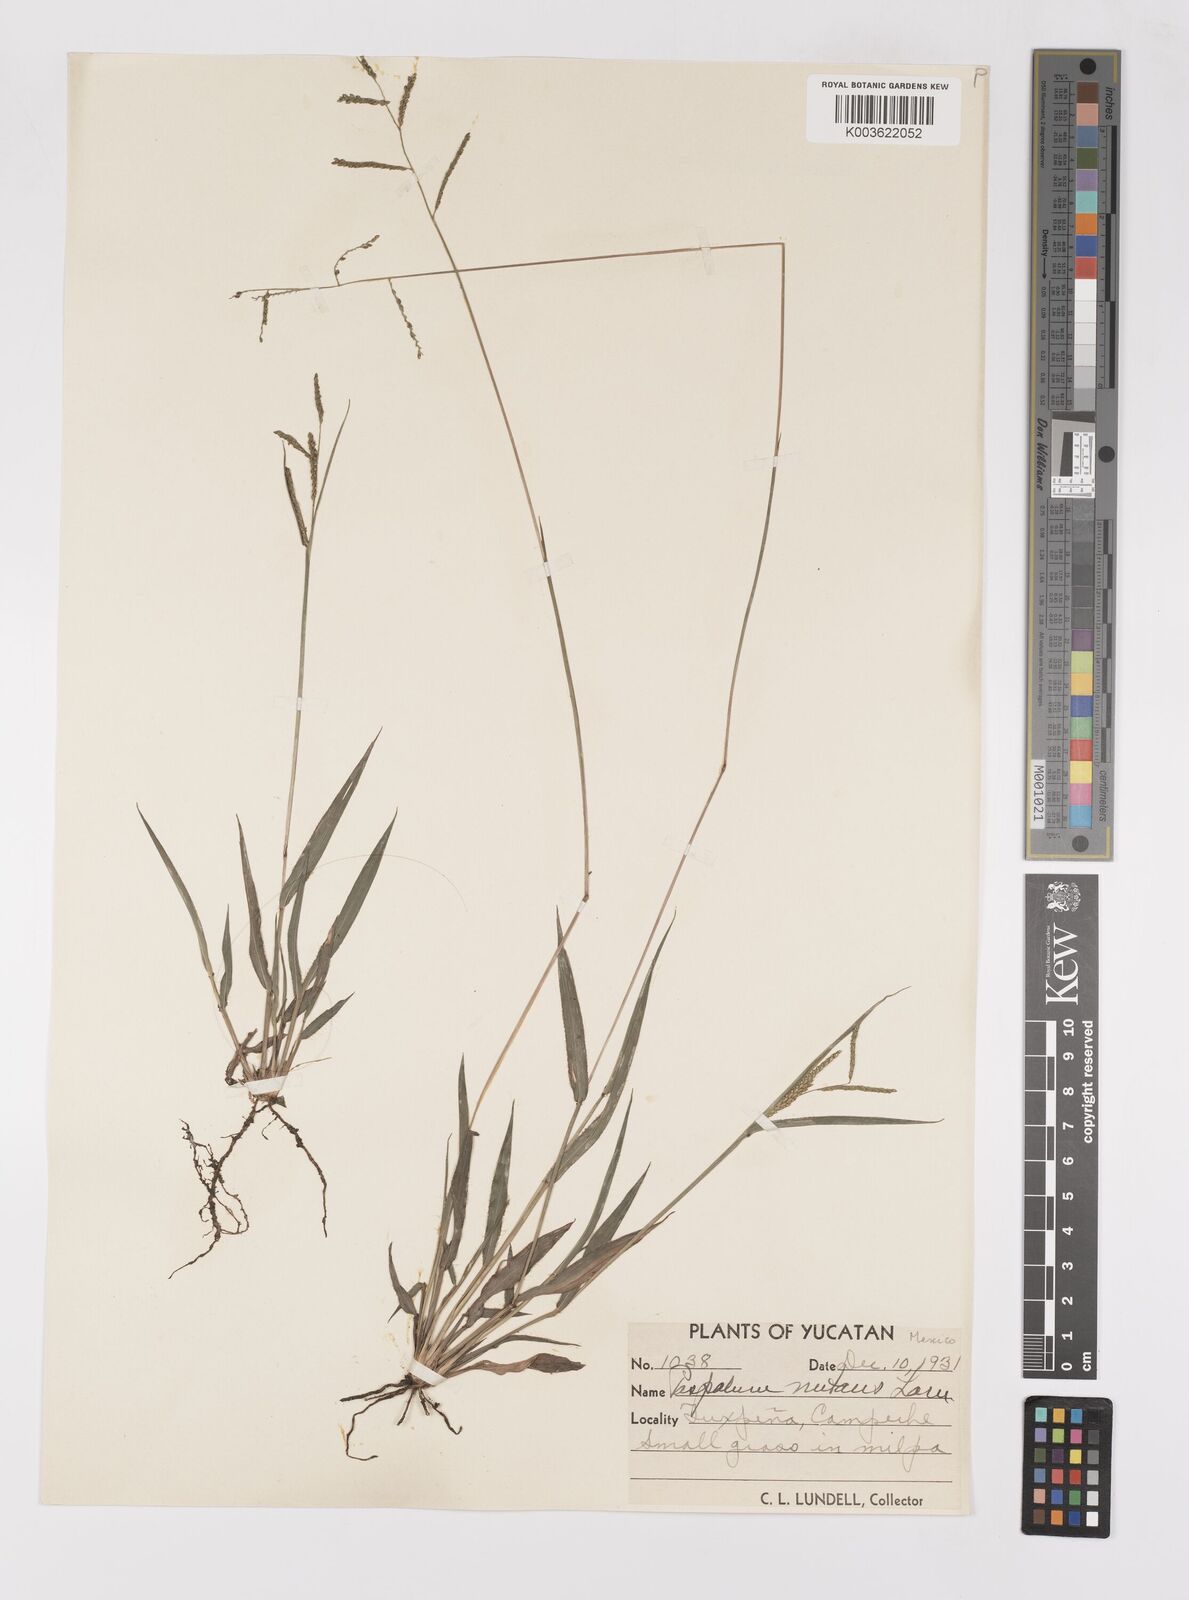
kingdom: Plantae
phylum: Tracheophyta
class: Liliopsida
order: Poales
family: Poaceae
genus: Paspalum
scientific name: Paspalum nutans
